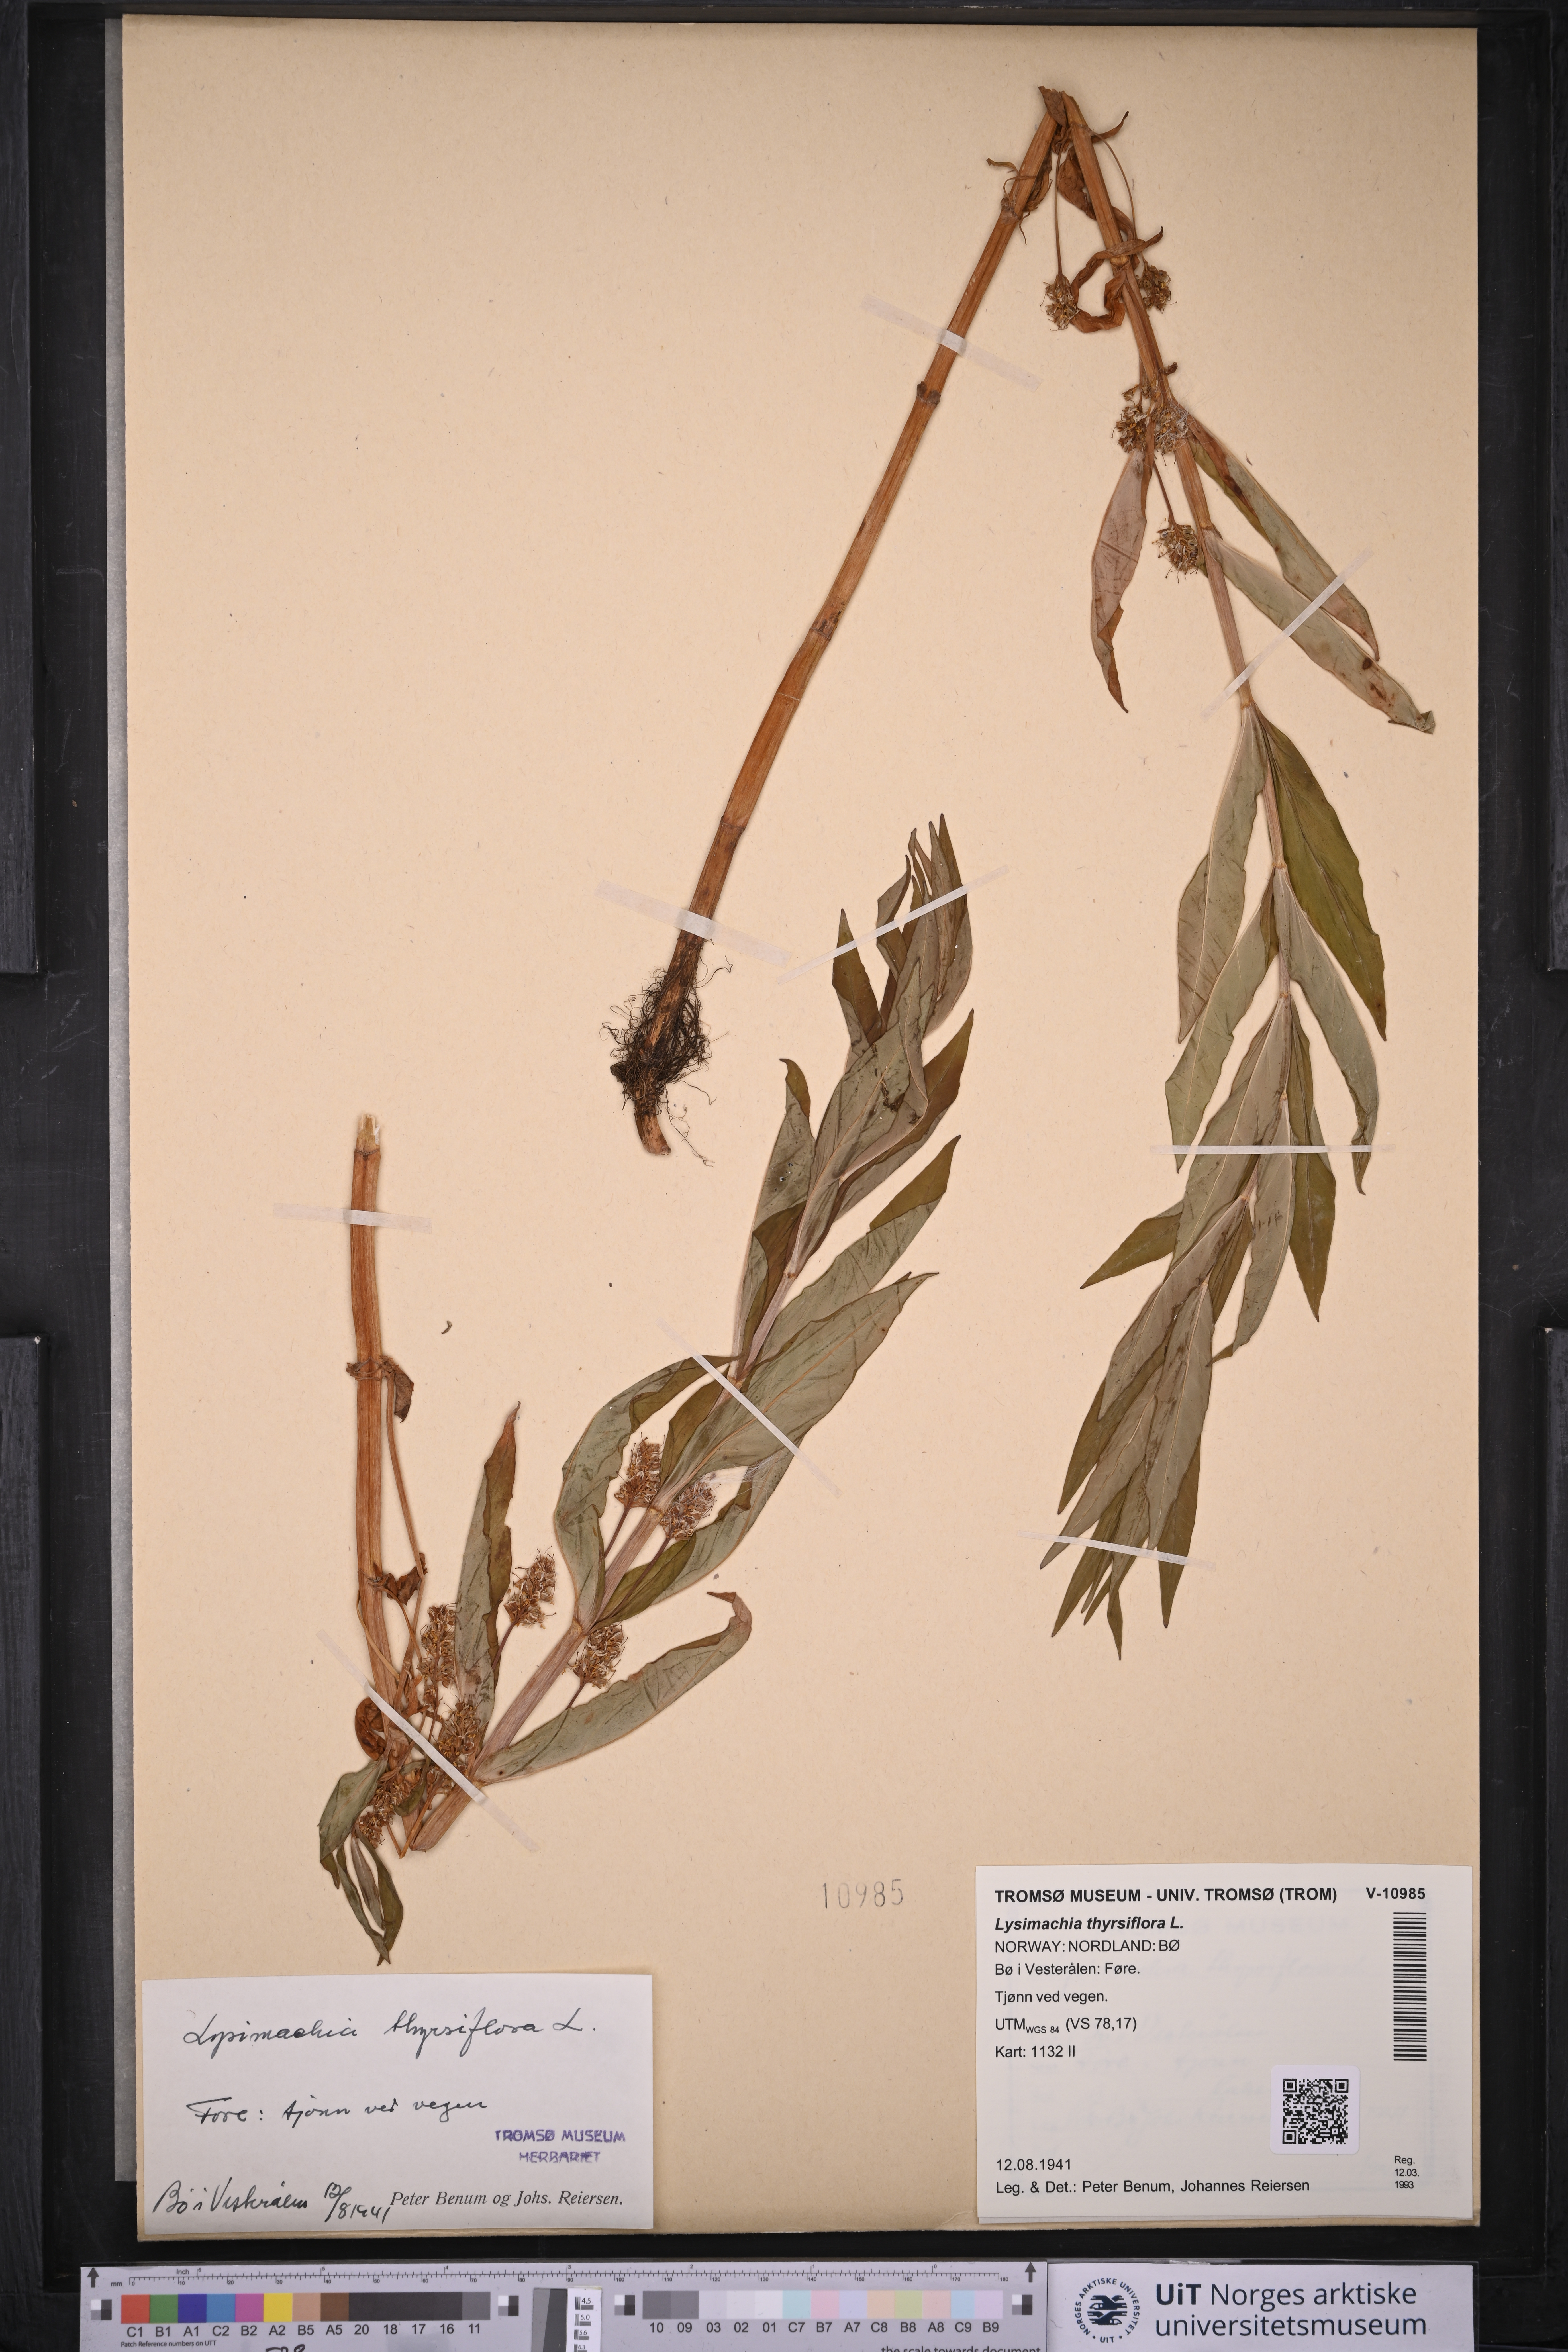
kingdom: Plantae
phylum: Tracheophyta
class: Magnoliopsida
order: Ericales
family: Primulaceae
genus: Lysimachia
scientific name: Lysimachia thyrsiflora
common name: Tufted loosestrife
